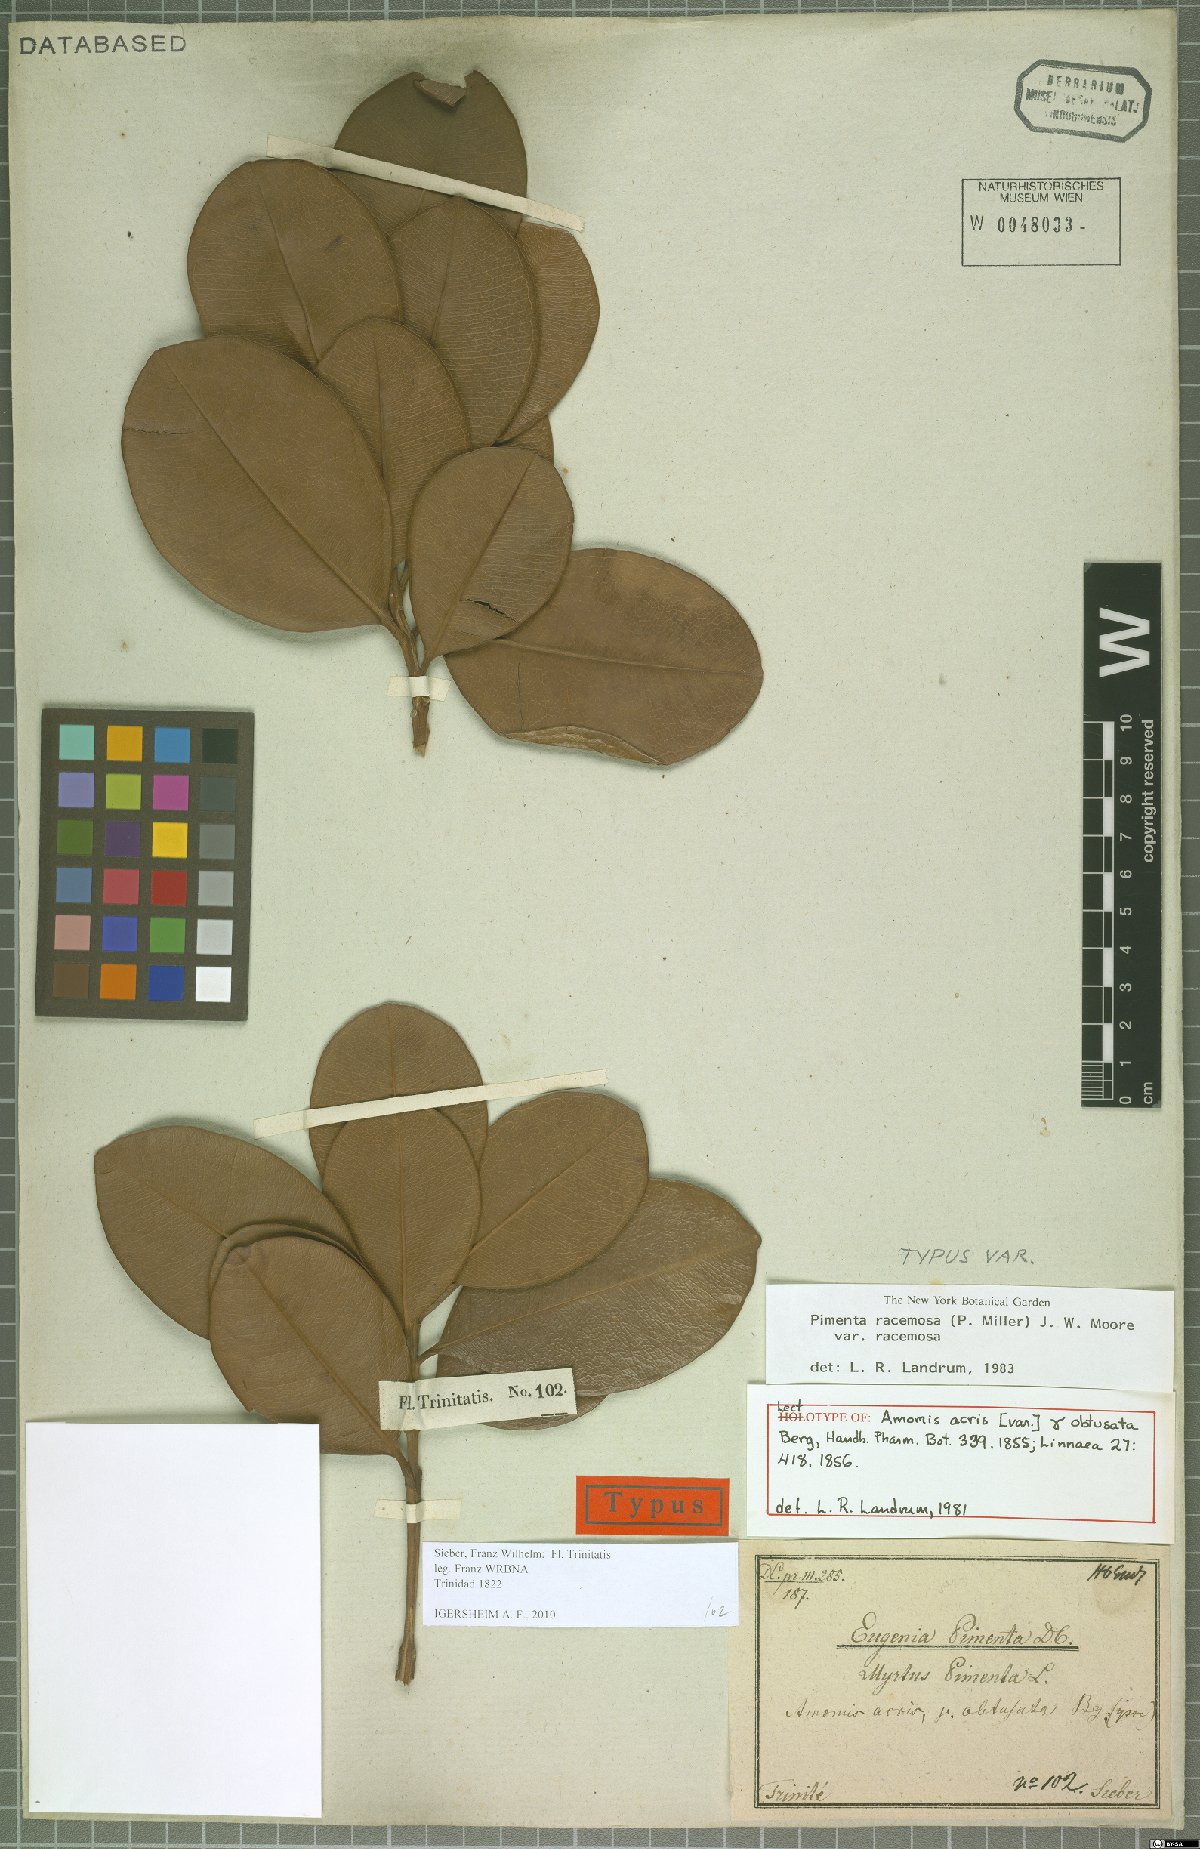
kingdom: Plantae
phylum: Tracheophyta
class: Magnoliopsida
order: Myrtales
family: Myrtaceae
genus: Pimenta
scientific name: Pimenta racemosa
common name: Bay rum tree
